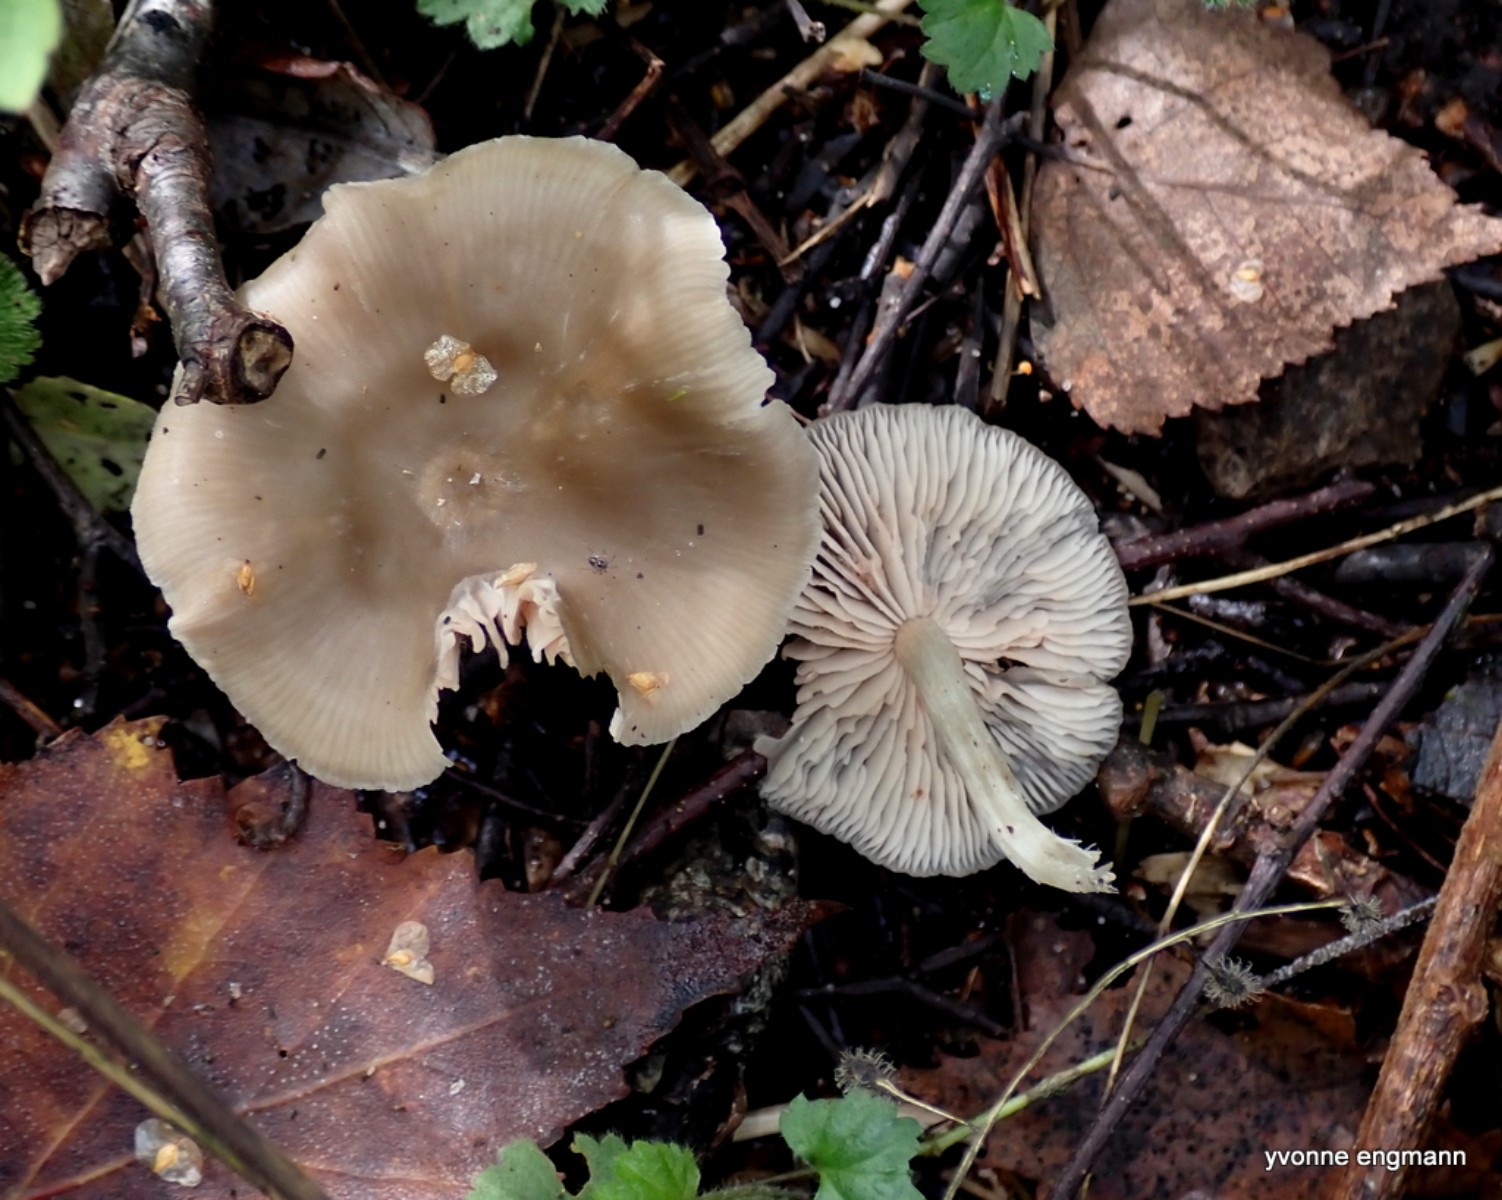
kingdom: Fungi
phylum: Basidiomycota
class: Agaricomycetes
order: Agaricales
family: Entolomataceae
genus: Entoloma
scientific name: Entoloma
